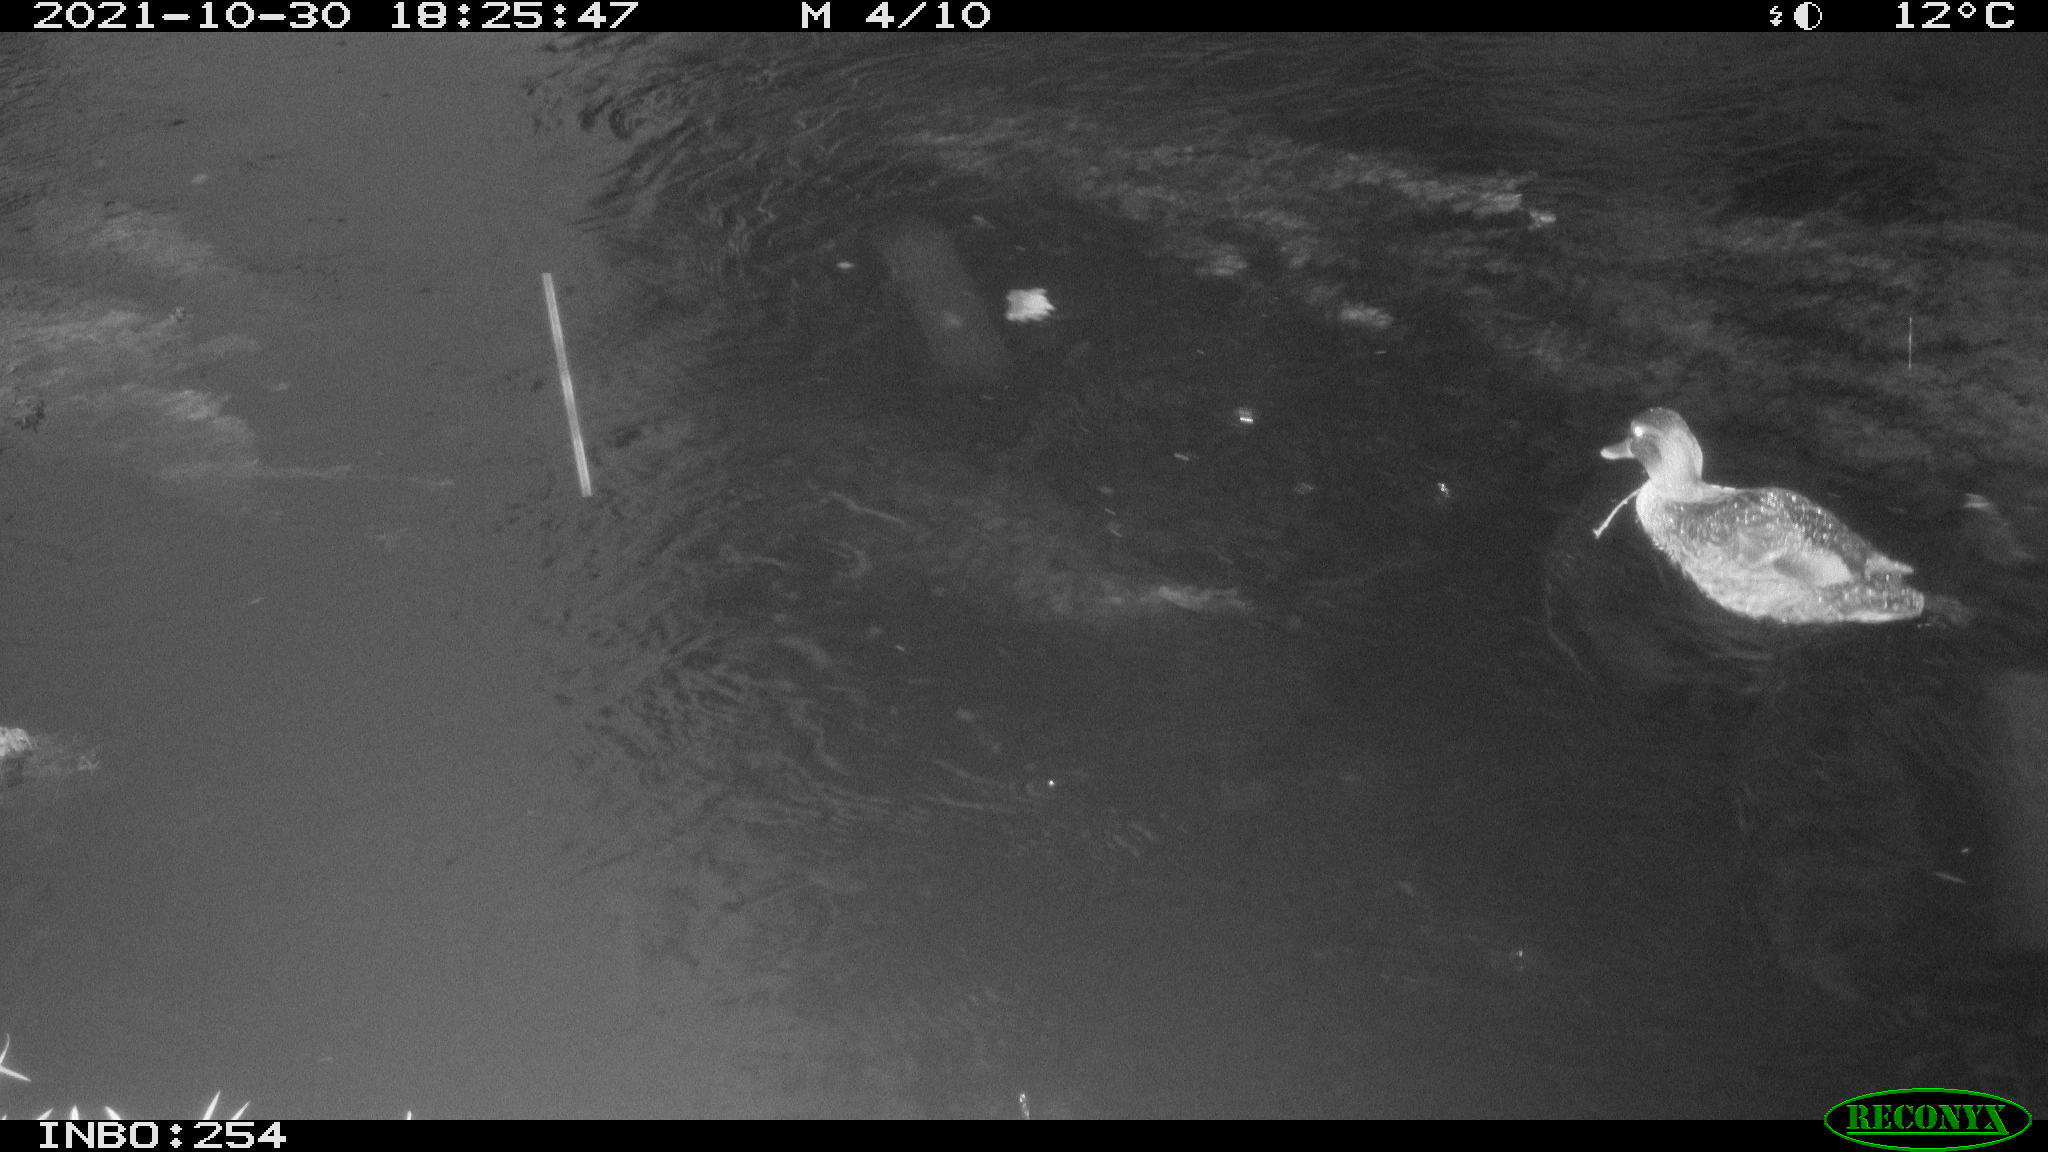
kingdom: Animalia
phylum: Chordata
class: Aves
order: Anseriformes
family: Anatidae
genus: Anas
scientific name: Anas platyrhynchos
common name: Mallard
